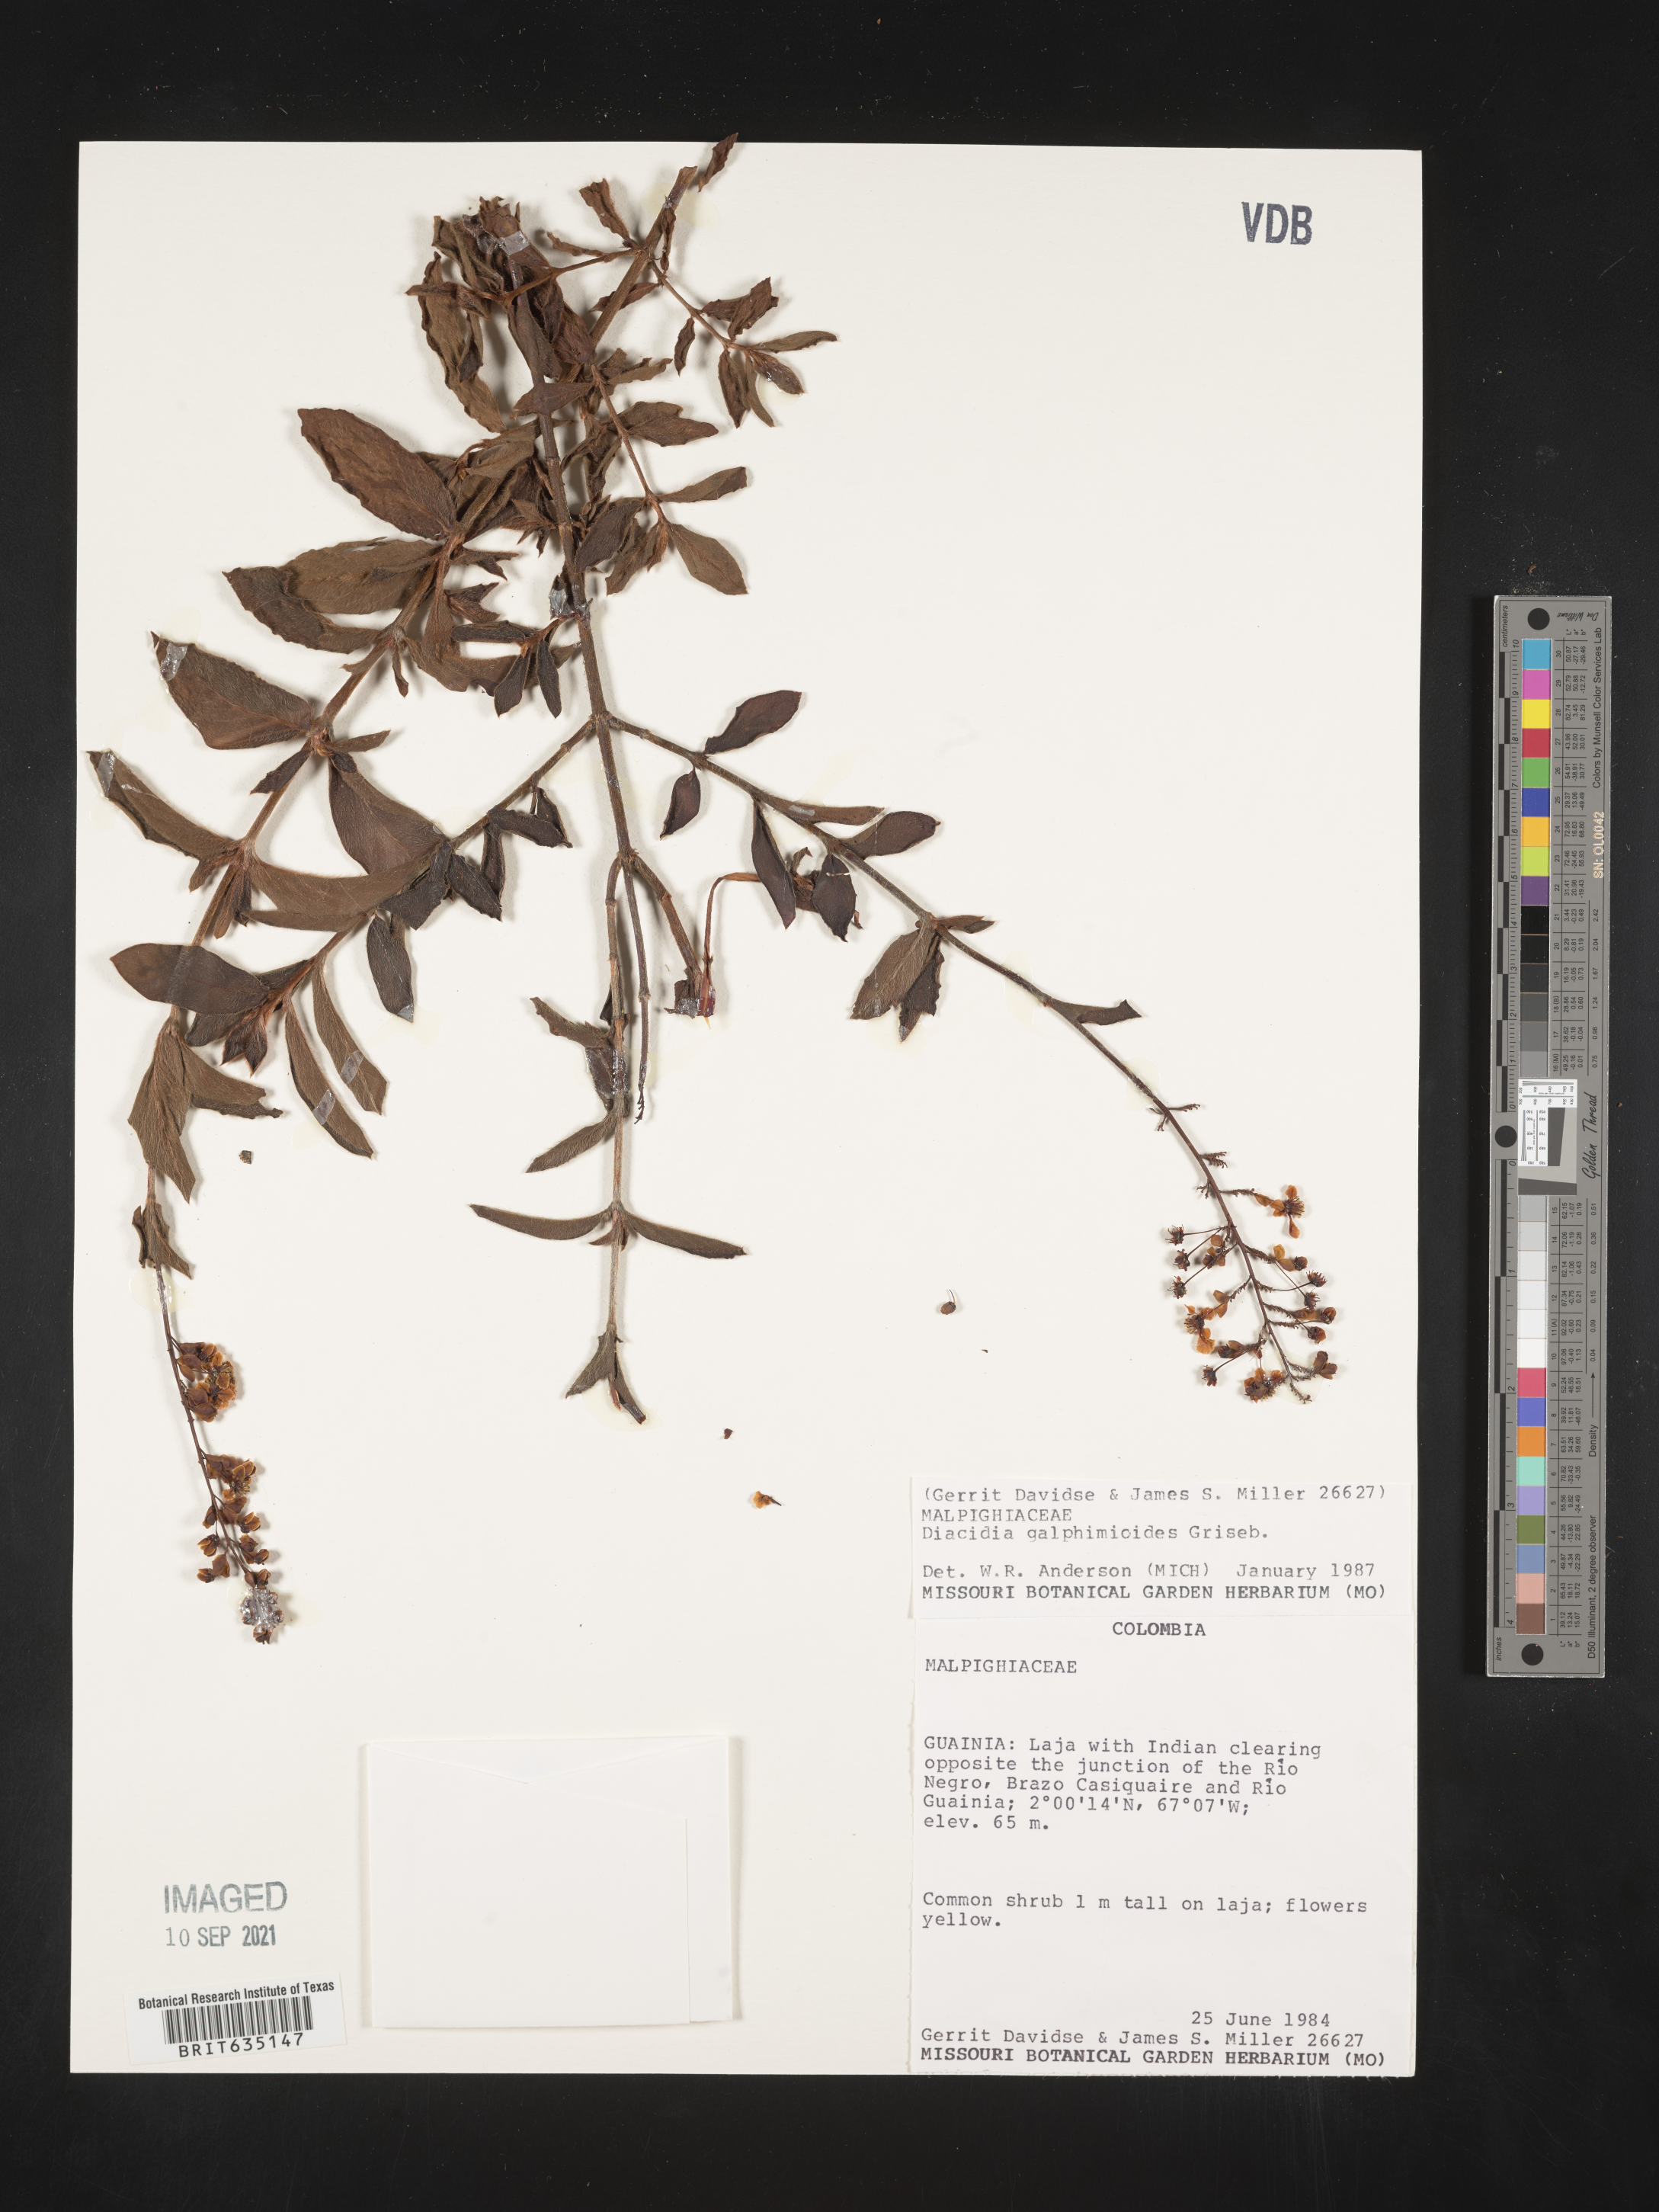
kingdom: Plantae
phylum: Tracheophyta
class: Magnoliopsida
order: Malpighiales
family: Malpighiaceae
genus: Diacidia
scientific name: Diacidia
